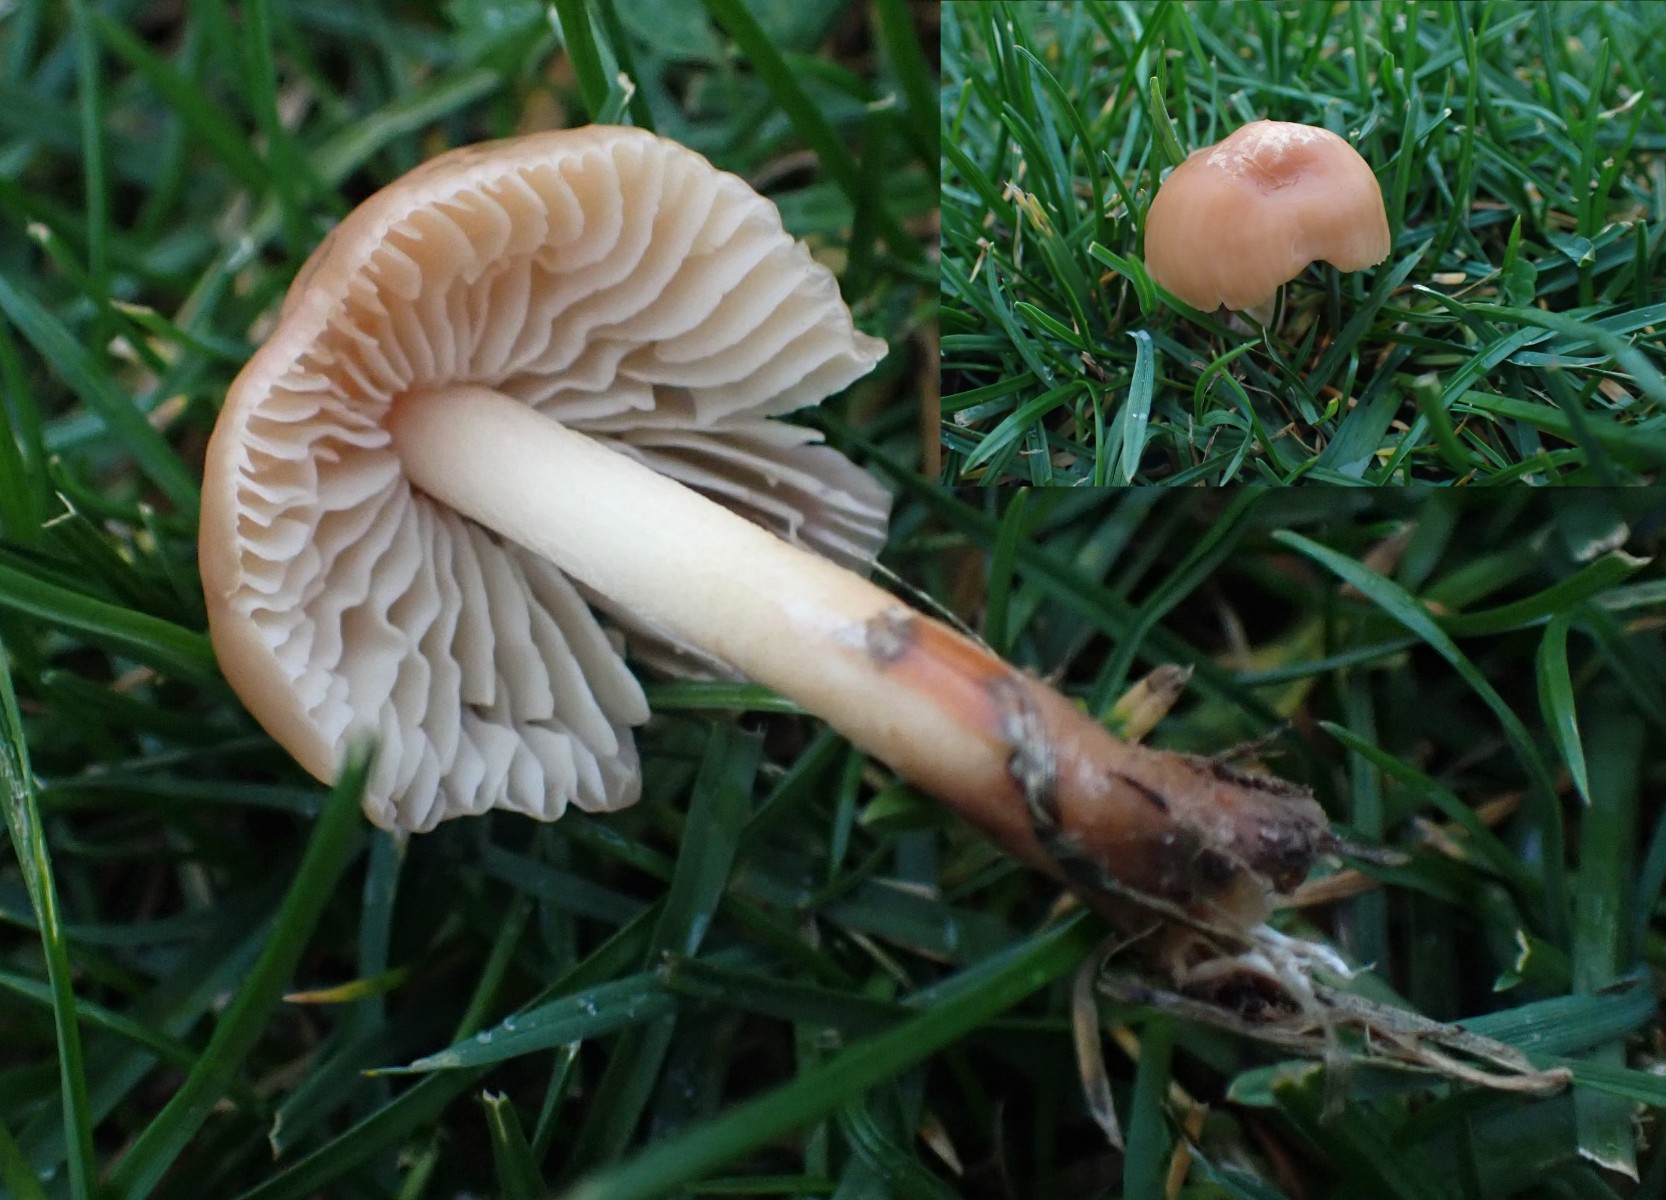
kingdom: Fungi
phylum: Basidiomycota
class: Agaricomycetes
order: Agaricales
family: Marasmiaceae
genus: Marasmius
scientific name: Marasmius oreades
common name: elledans-bruskhat
